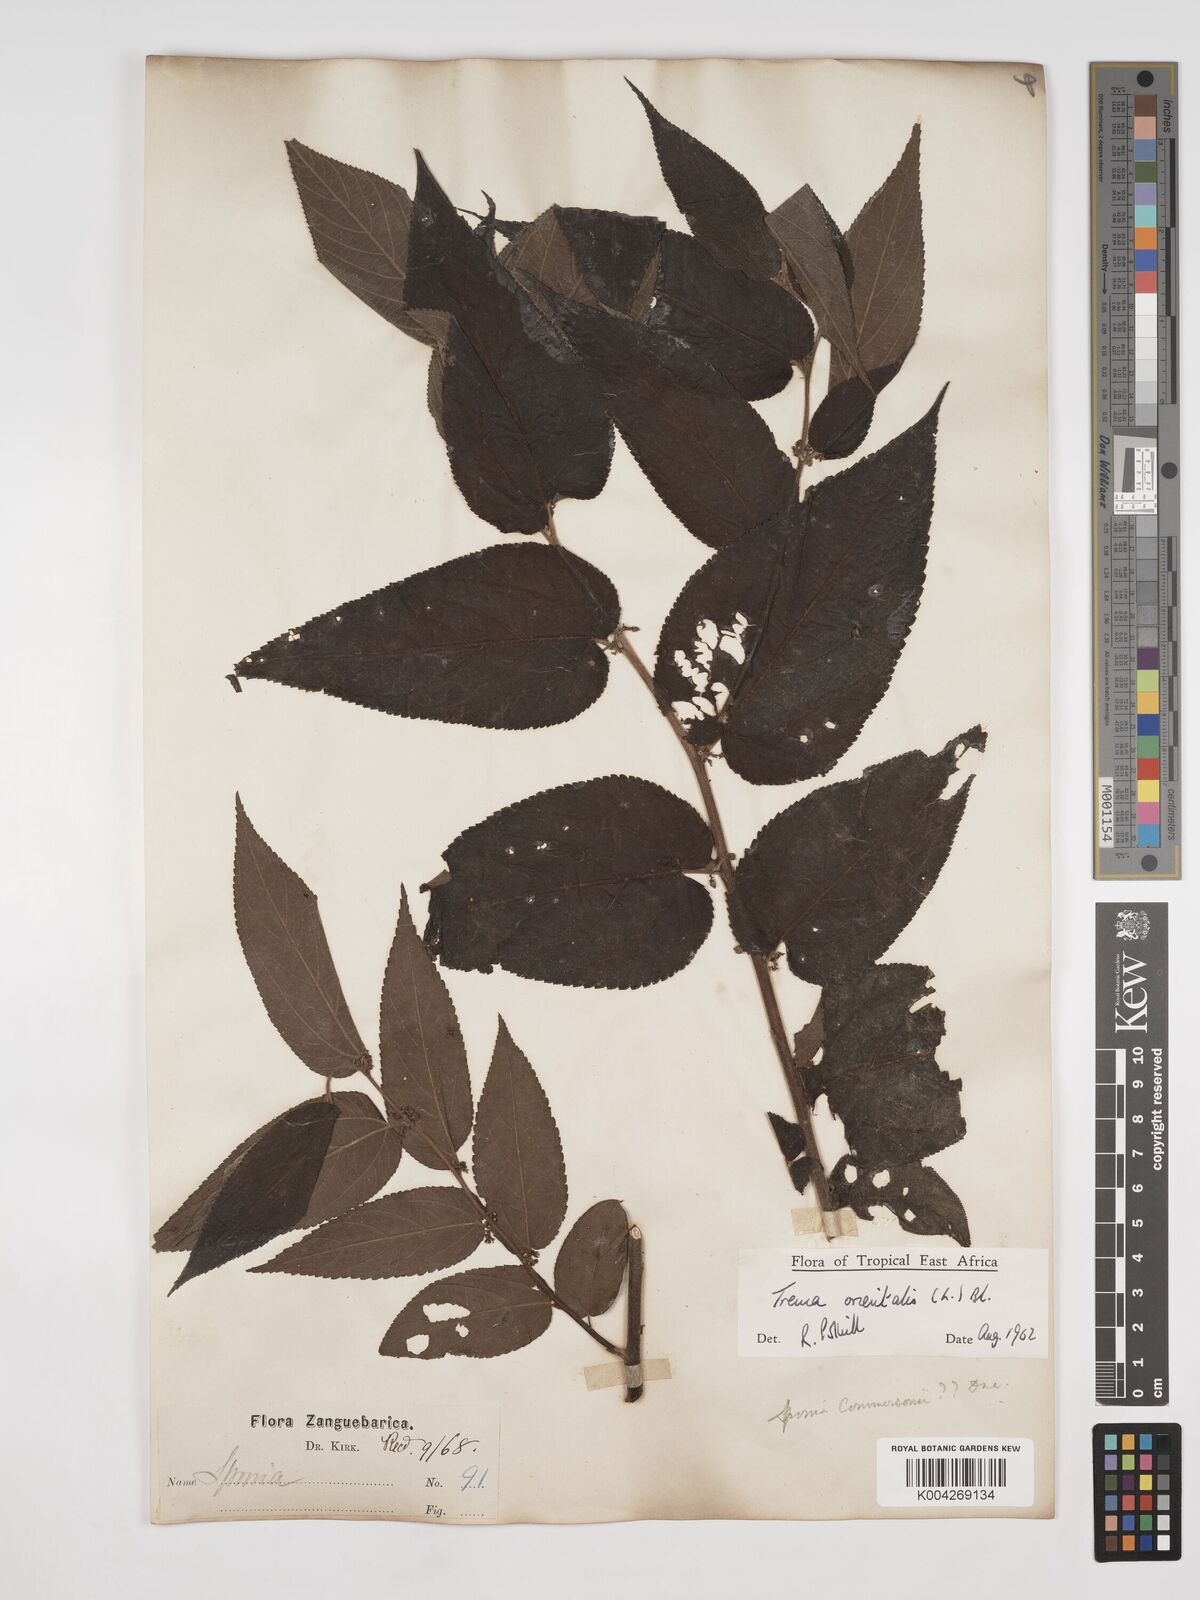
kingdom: Plantae
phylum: Tracheophyta
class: Magnoliopsida
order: Rosales
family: Cannabaceae
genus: Trema
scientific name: Trema orientale
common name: Indian charcoal tree
